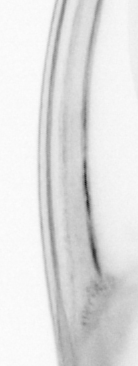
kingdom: Animalia
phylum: Chordata
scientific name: Chordata
